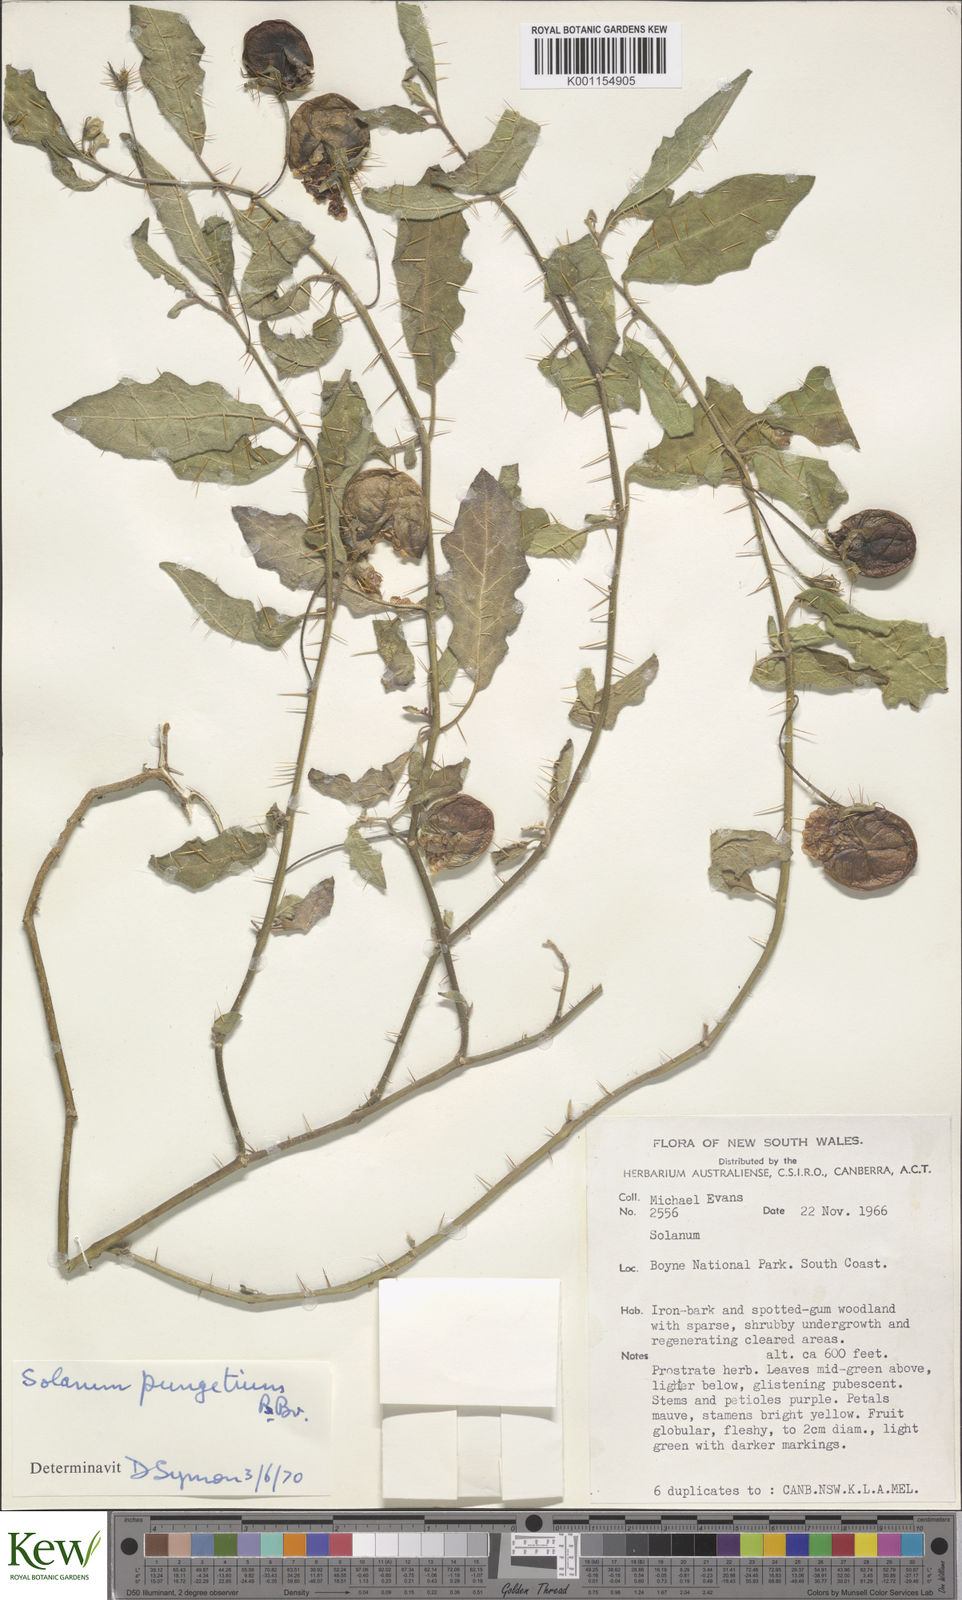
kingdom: Plantae
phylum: Tracheophyta
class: Magnoliopsida
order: Solanales
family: Solanaceae
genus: Solanum
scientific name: Solanum pungetium
